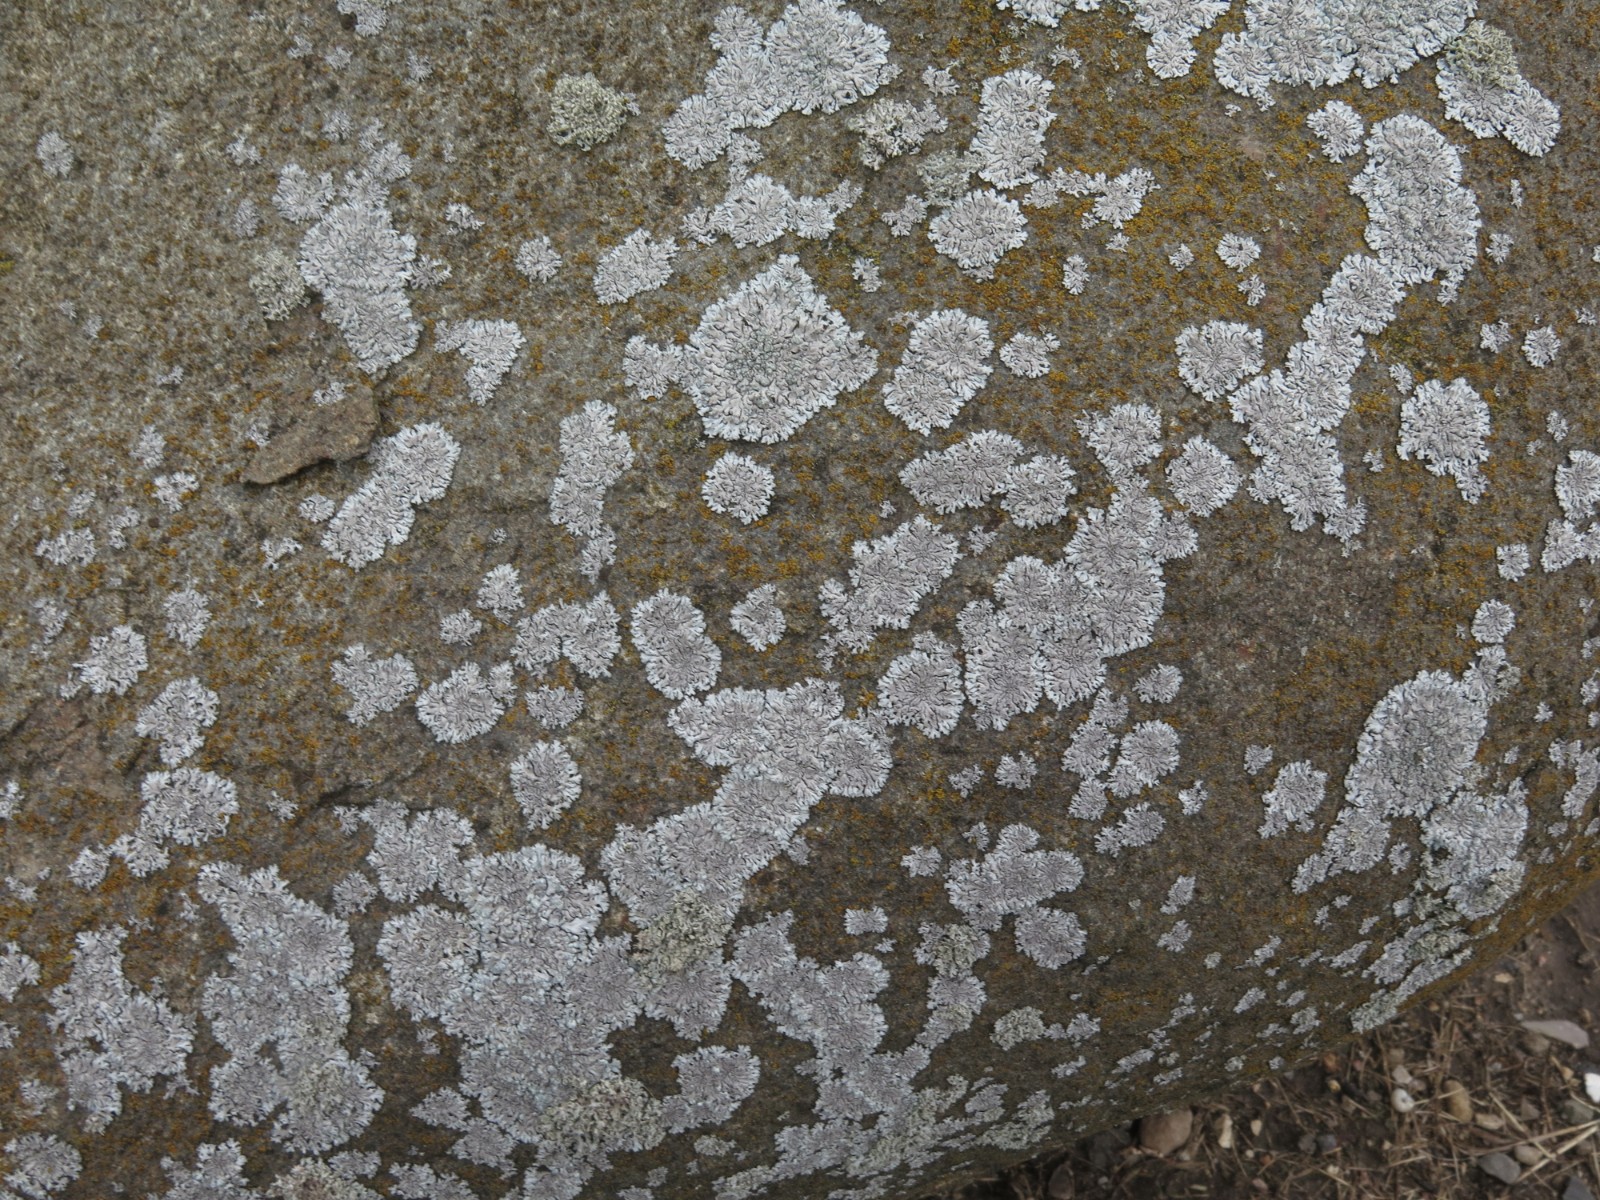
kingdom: Fungi
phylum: Ascomycota
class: Lecanoromycetes
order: Caliciales
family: Physciaceae
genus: Physcia
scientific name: Physcia caesia
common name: blågrå rosetlav
